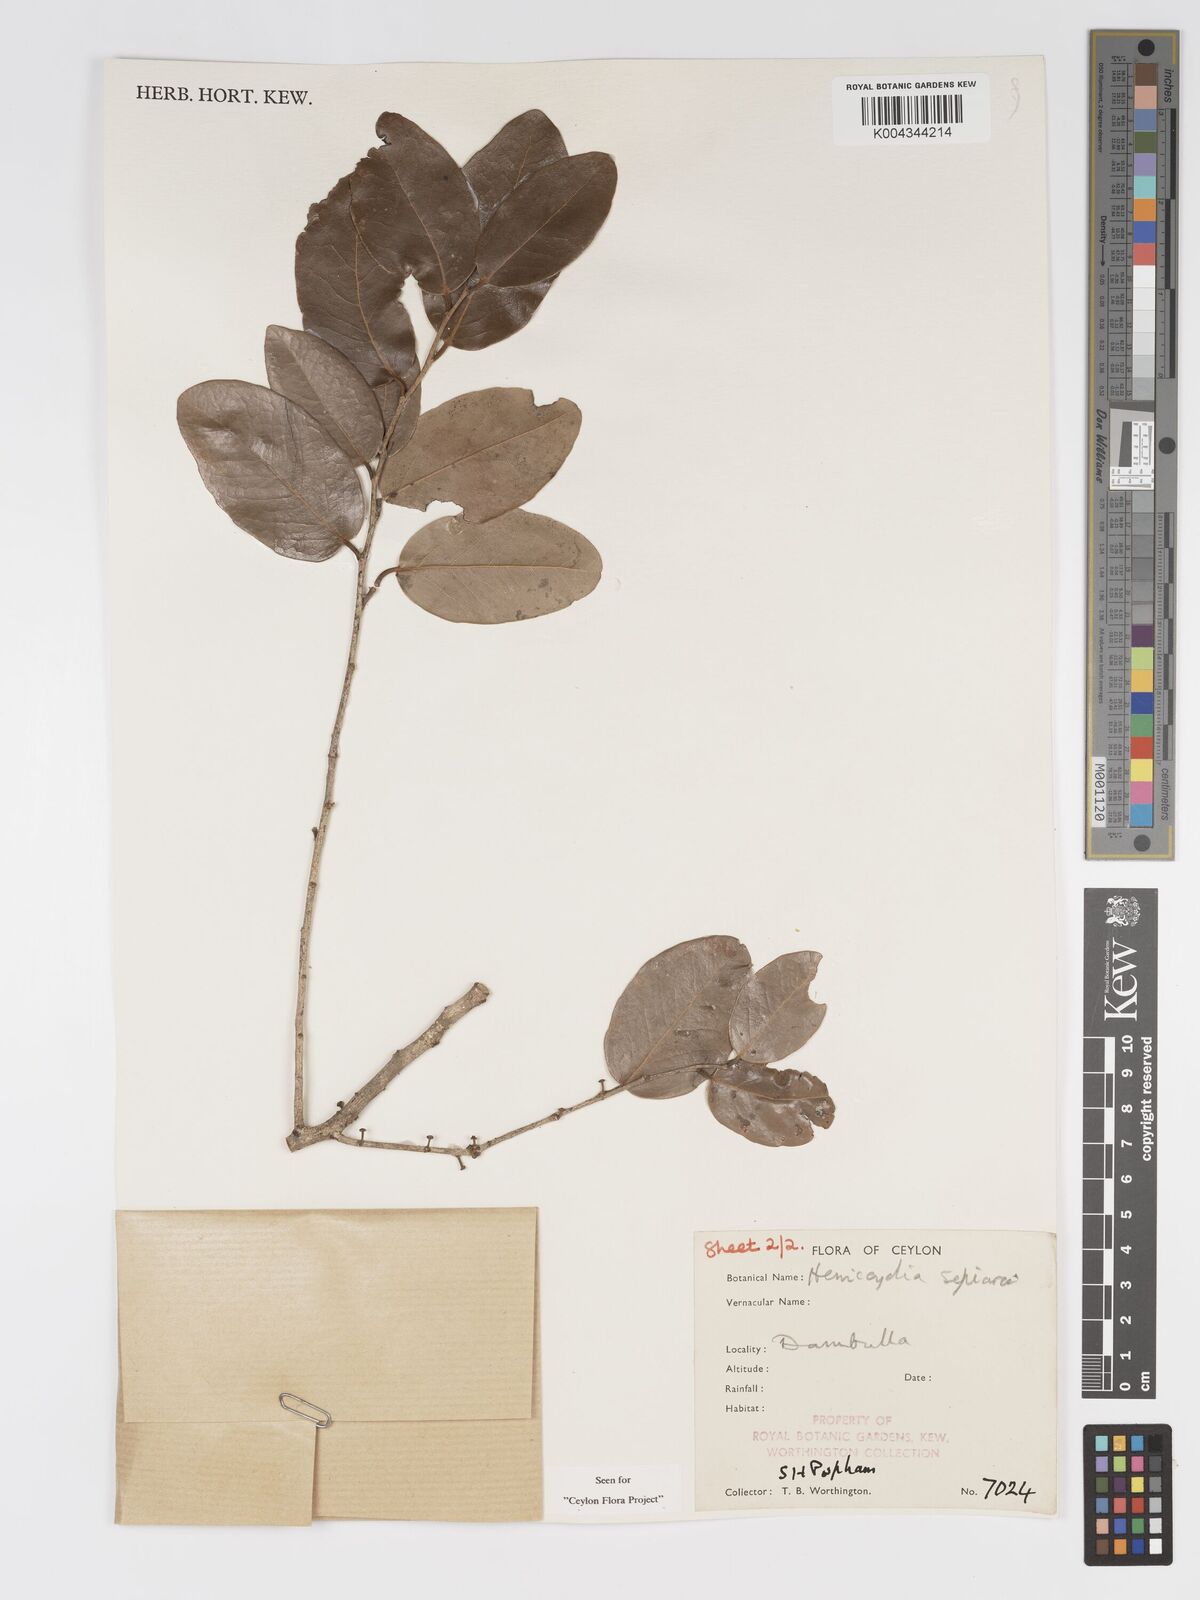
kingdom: Plantae
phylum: Tracheophyta
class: Magnoliopsida
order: Malpighiales
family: Putranjivaceae
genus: Drypetes
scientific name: Drypetes sepiaria
